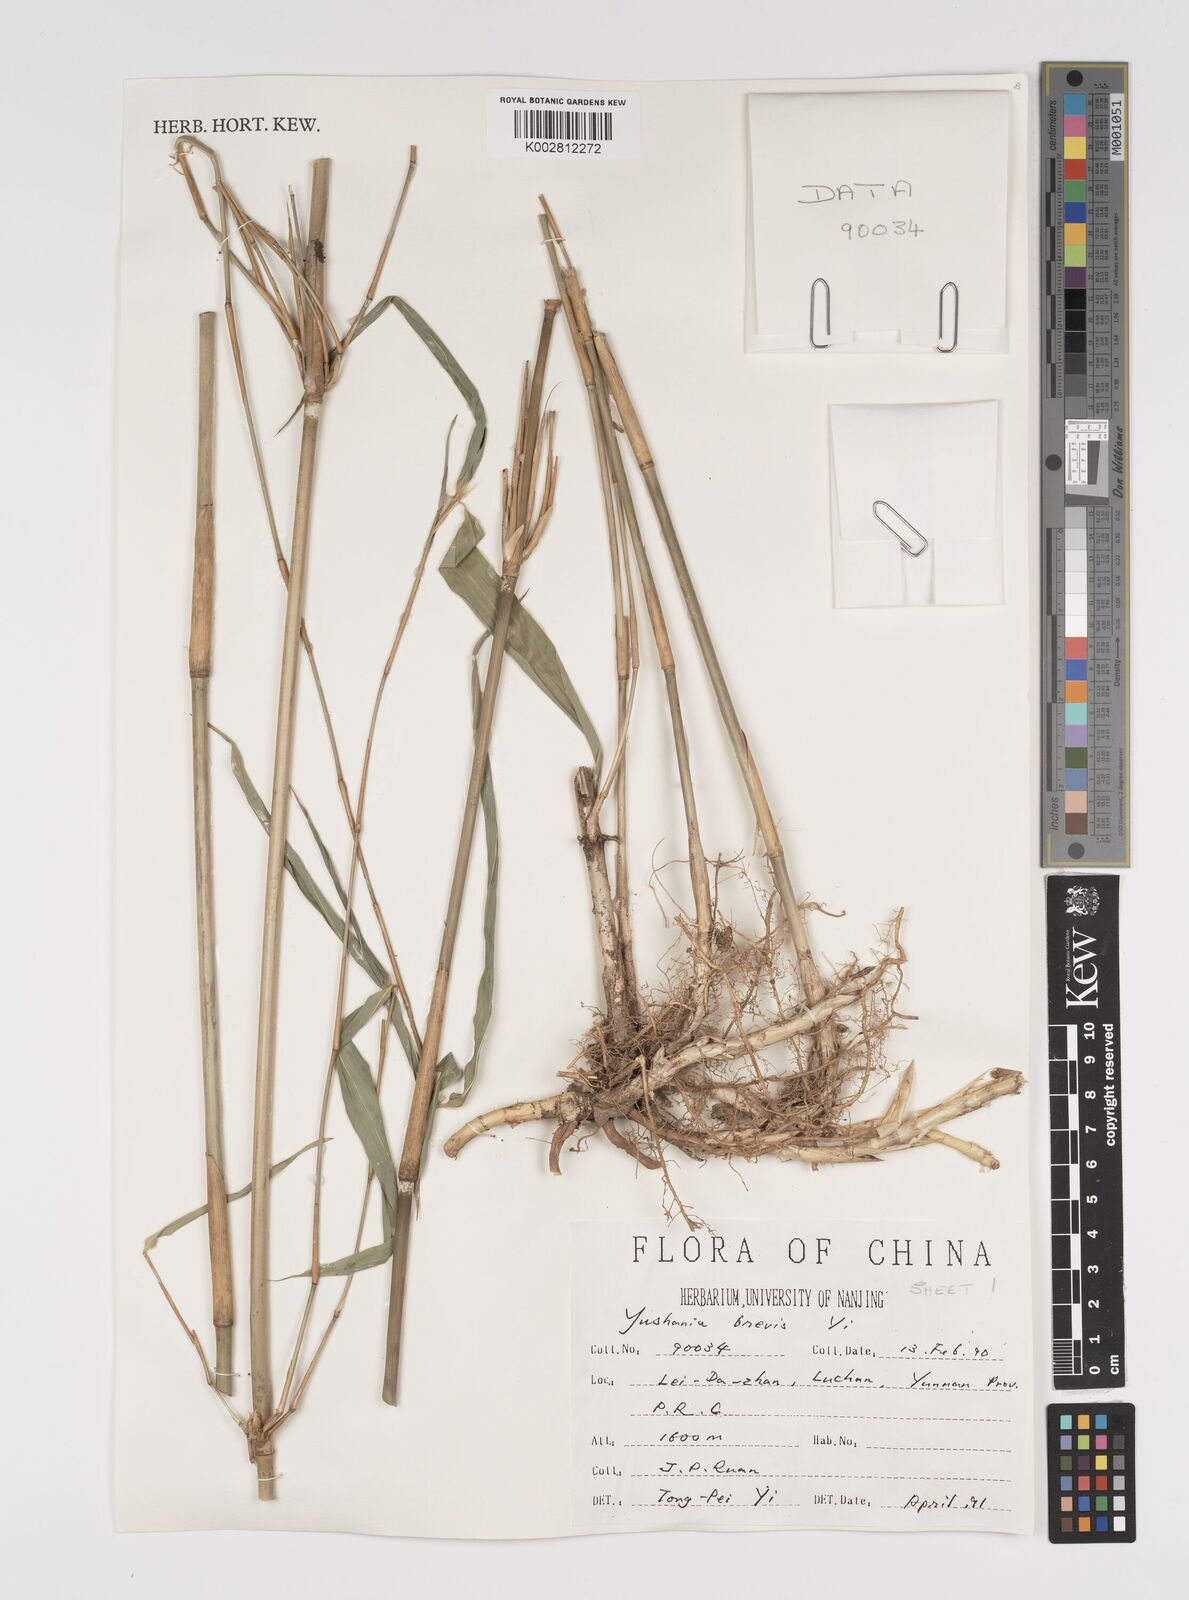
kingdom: Plantae
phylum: Tracheophyta
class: Liliopsida
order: Poales
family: Poaceae
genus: Yushania
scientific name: Yushania brevis
